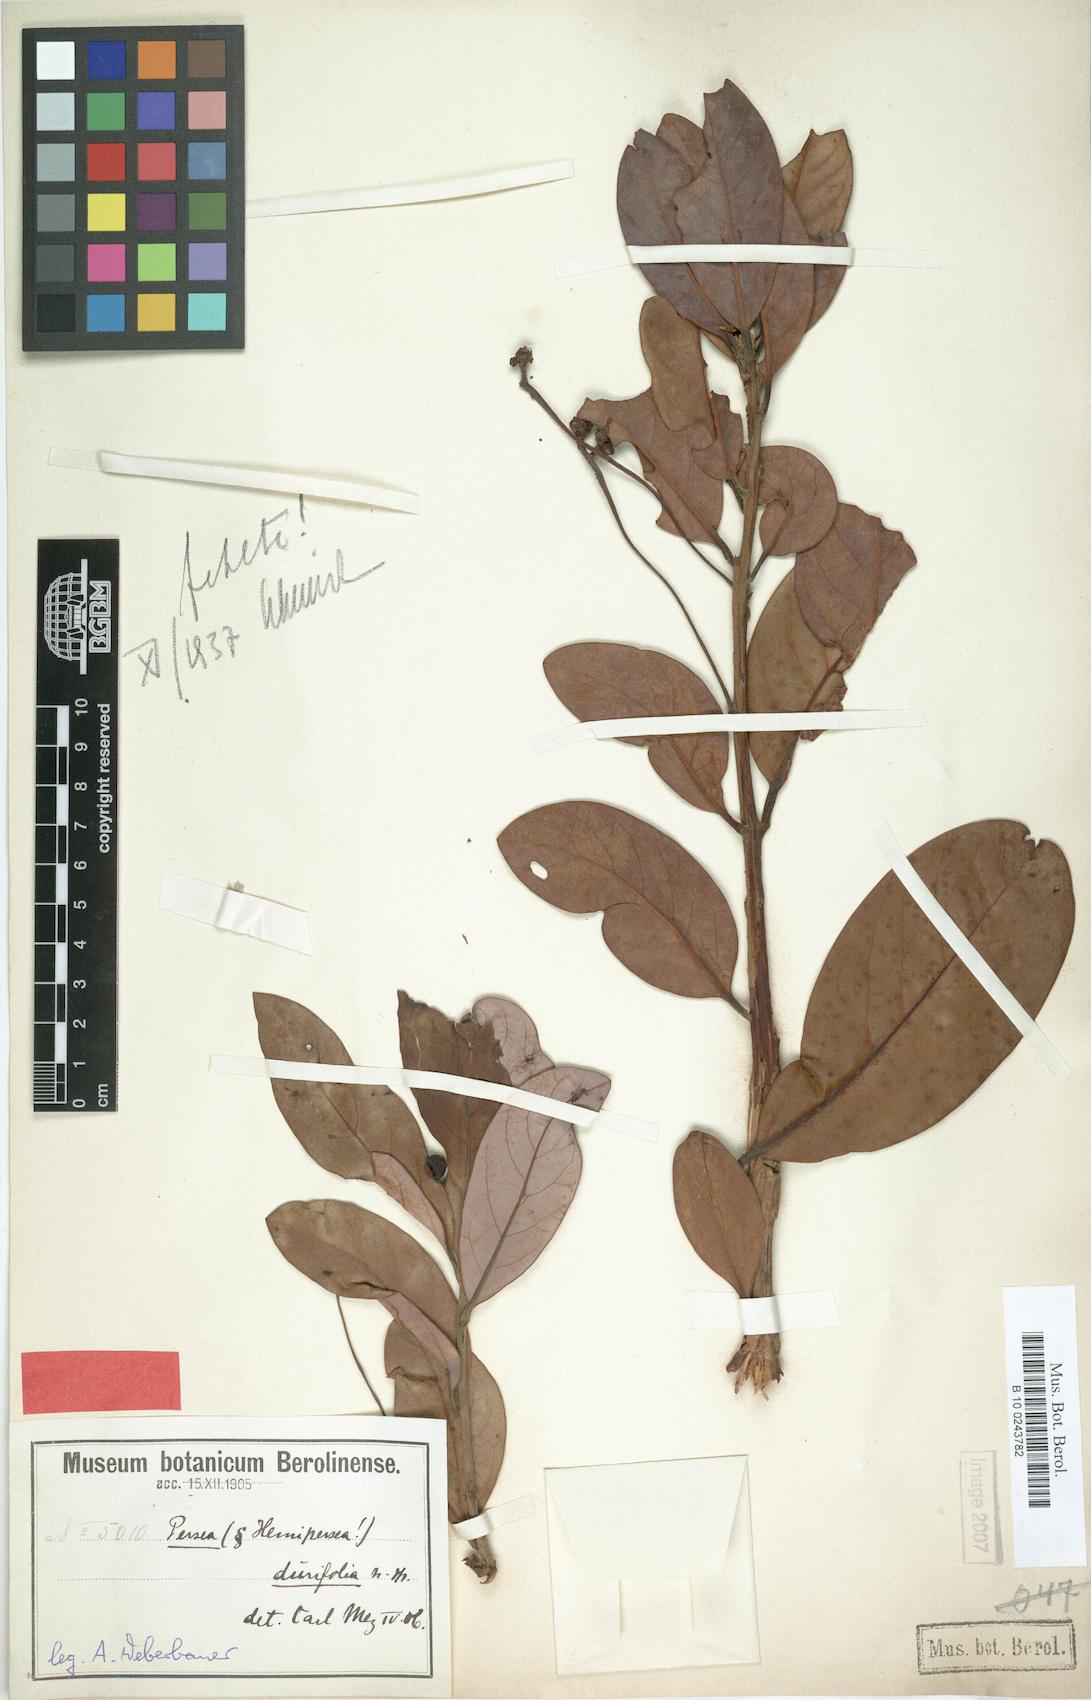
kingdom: Plantae
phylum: Tracheophyta
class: Magnoliopsida
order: Laurales
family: Lauraceae
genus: Persea
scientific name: Persea haenkeana
